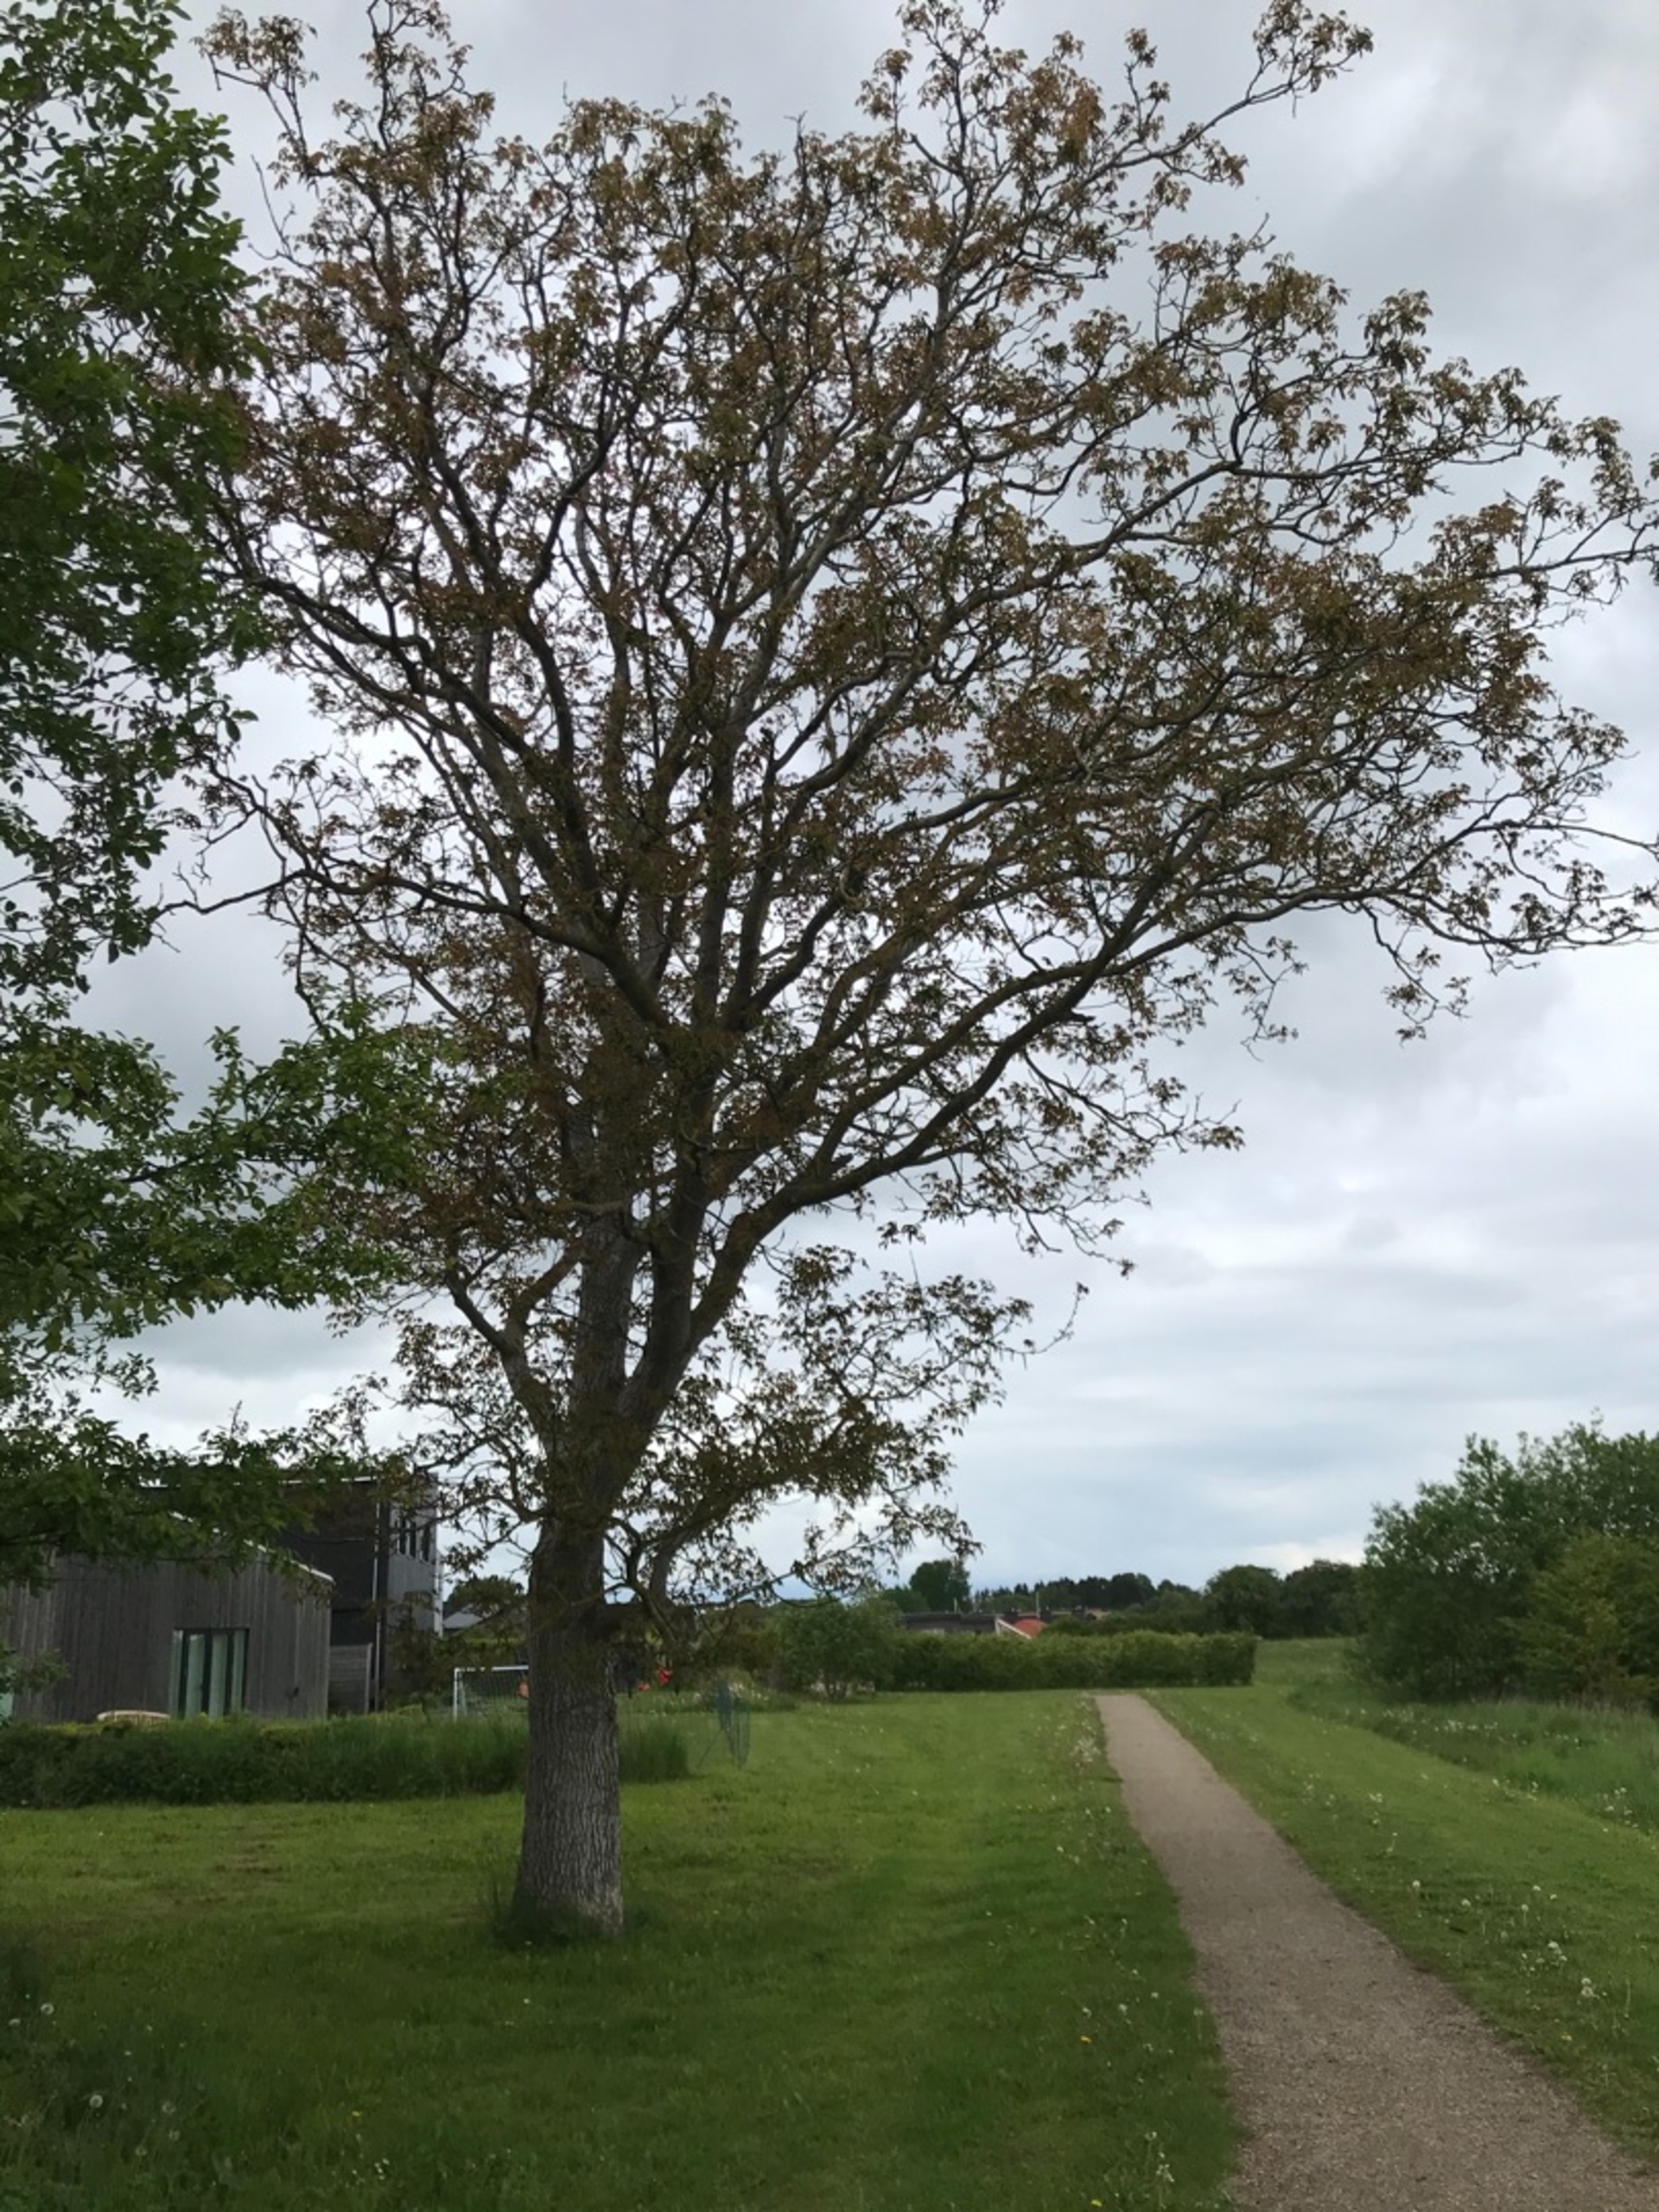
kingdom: Plantae
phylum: Tracheophyta
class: Magnoliopsida
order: Fagales
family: Juglandaceae
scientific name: Juglandaceae
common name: Valnødfamilien
